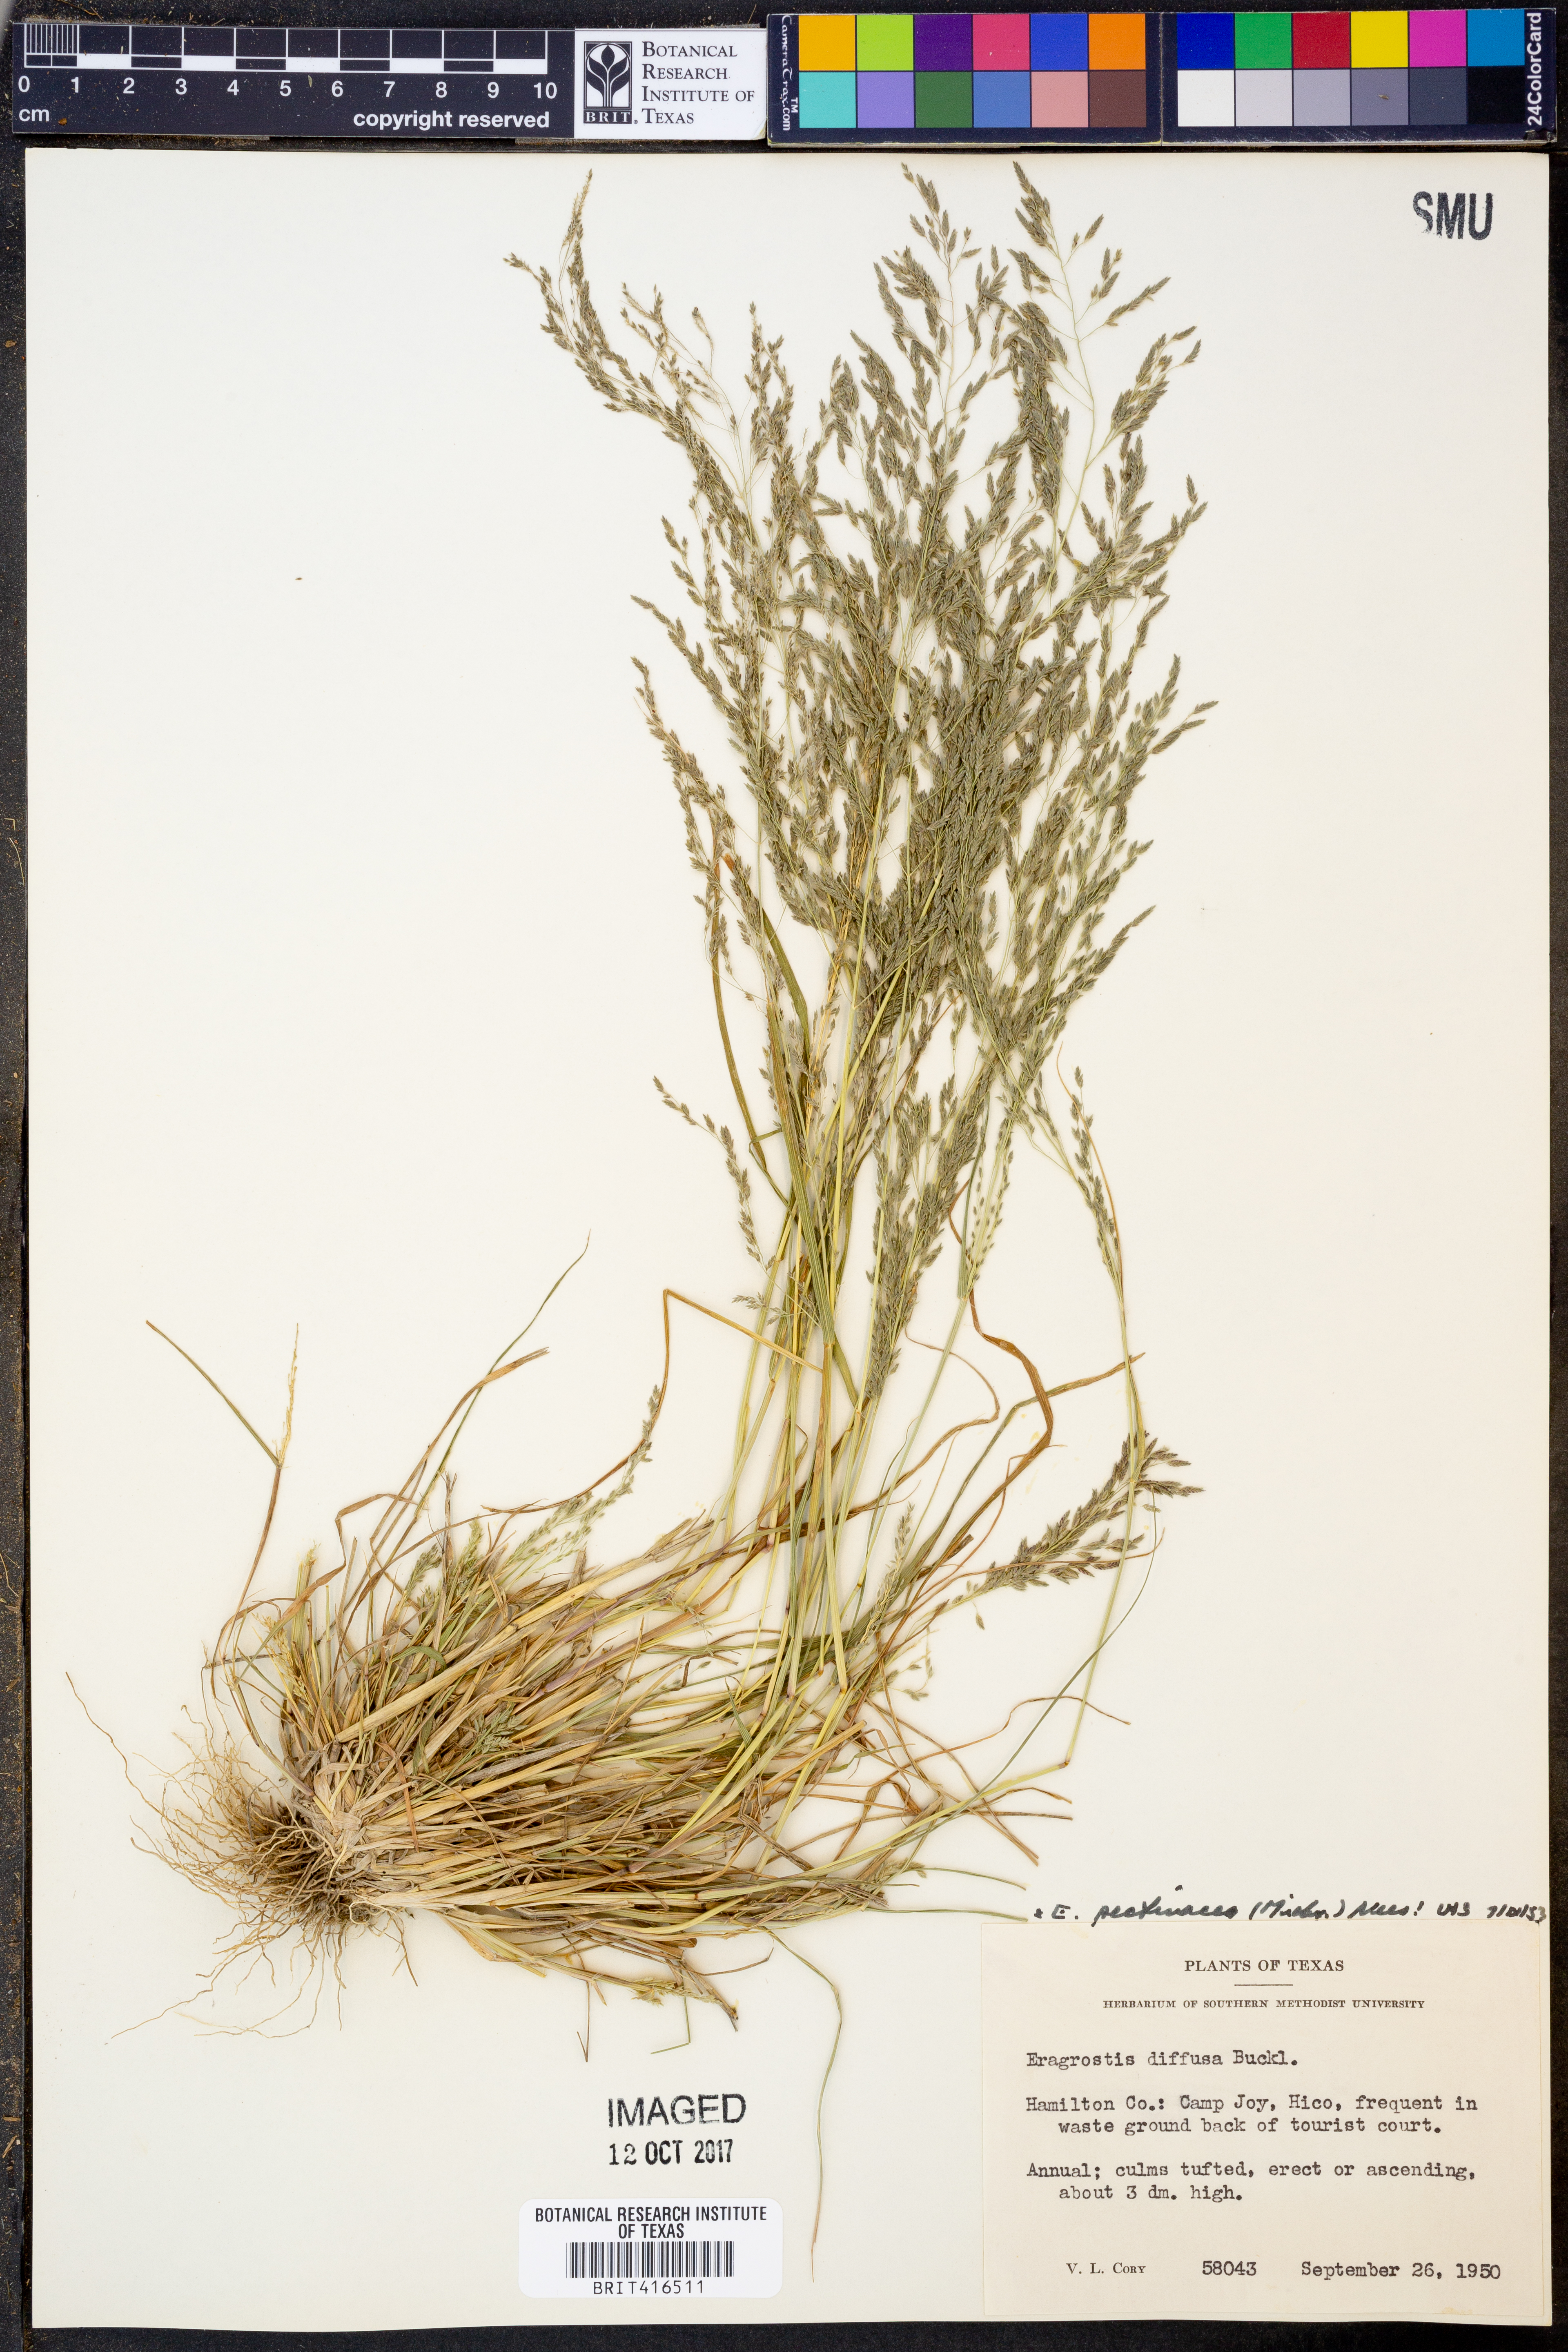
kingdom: Plantae
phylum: Tracheophyta
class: Liliopsida
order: Poales
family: Poaceae
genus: Eragrostis
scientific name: Eragrostis pectinacea
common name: Tufted lovegrass
